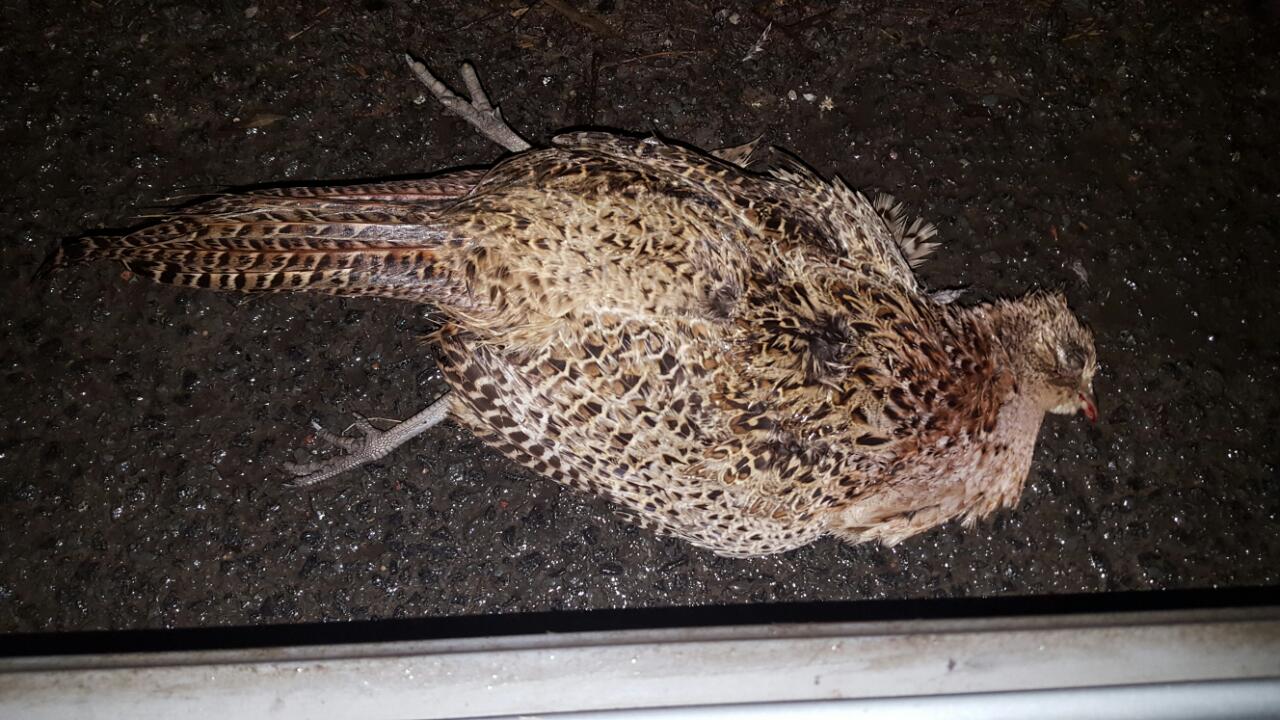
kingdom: Animalia
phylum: Chordata
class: Aves
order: Galliformes
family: Phasianidae
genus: Phasianus
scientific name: Phasianus colchicus
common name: Common pheasant
